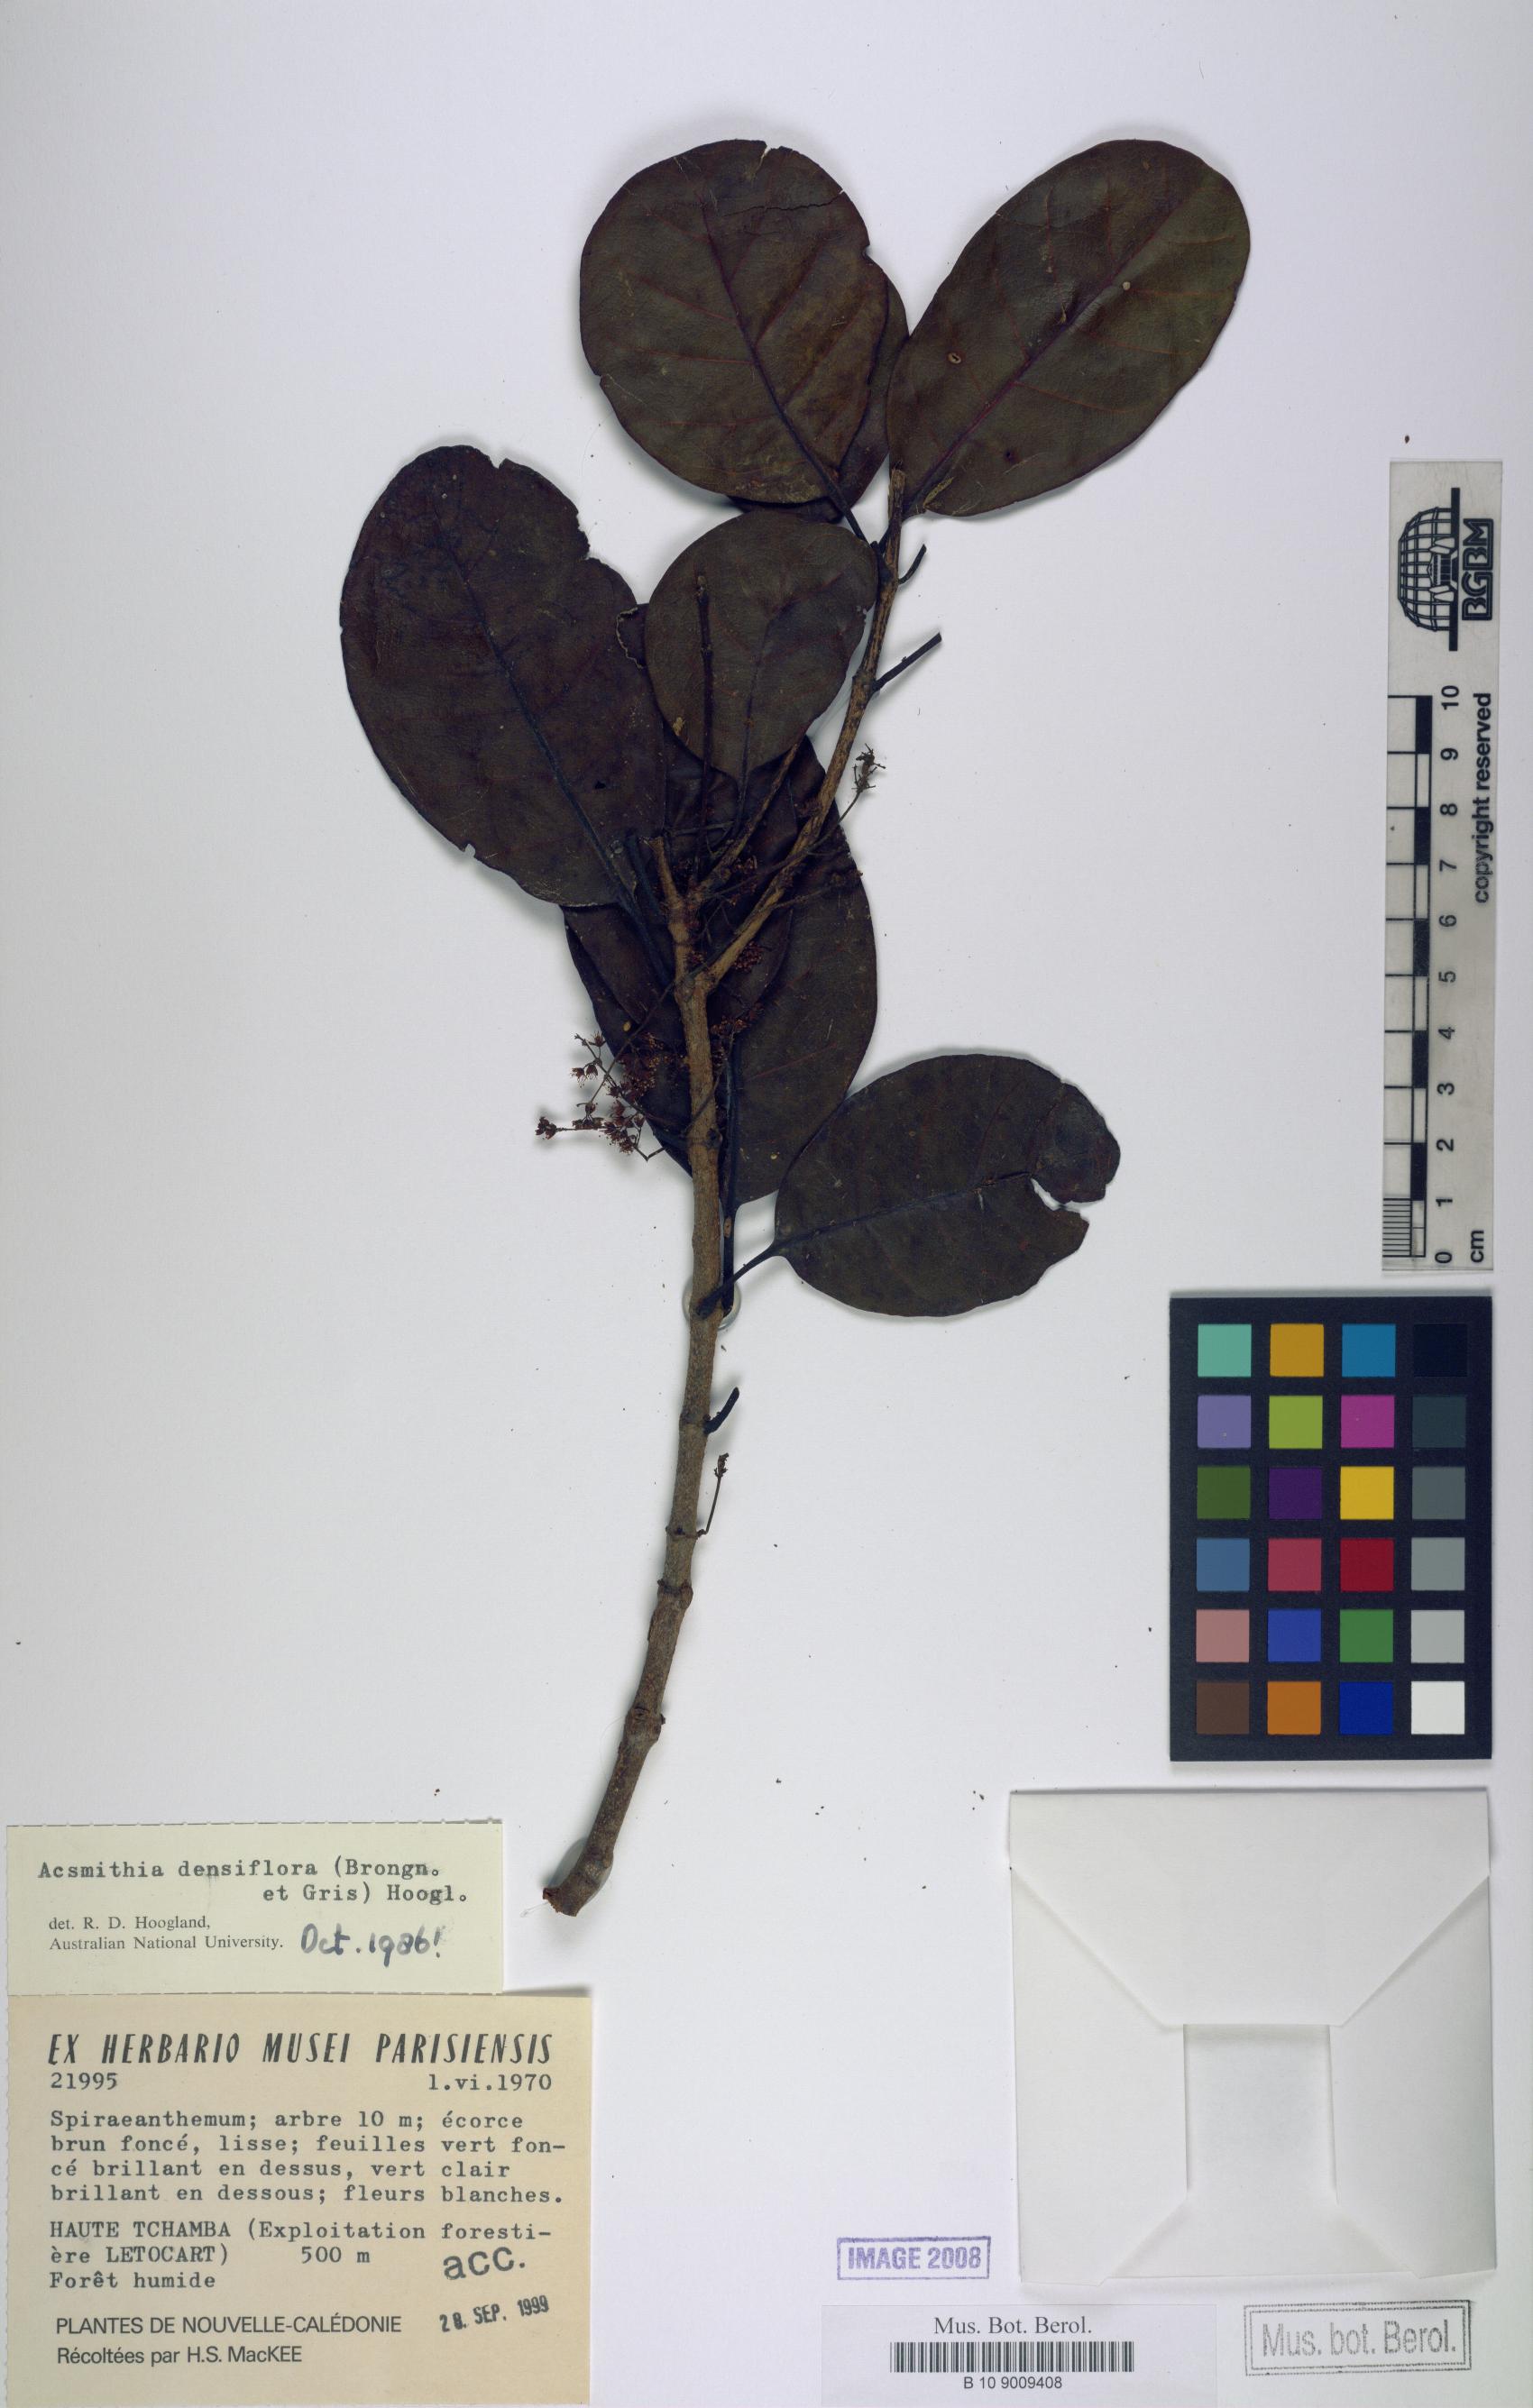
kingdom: Plantae
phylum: Tracheophyta
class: Magnoliopsida
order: Oxalidales
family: Cunoniaceae
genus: Spiraeanthemum
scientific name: Spiraeanthemum densiflorum
